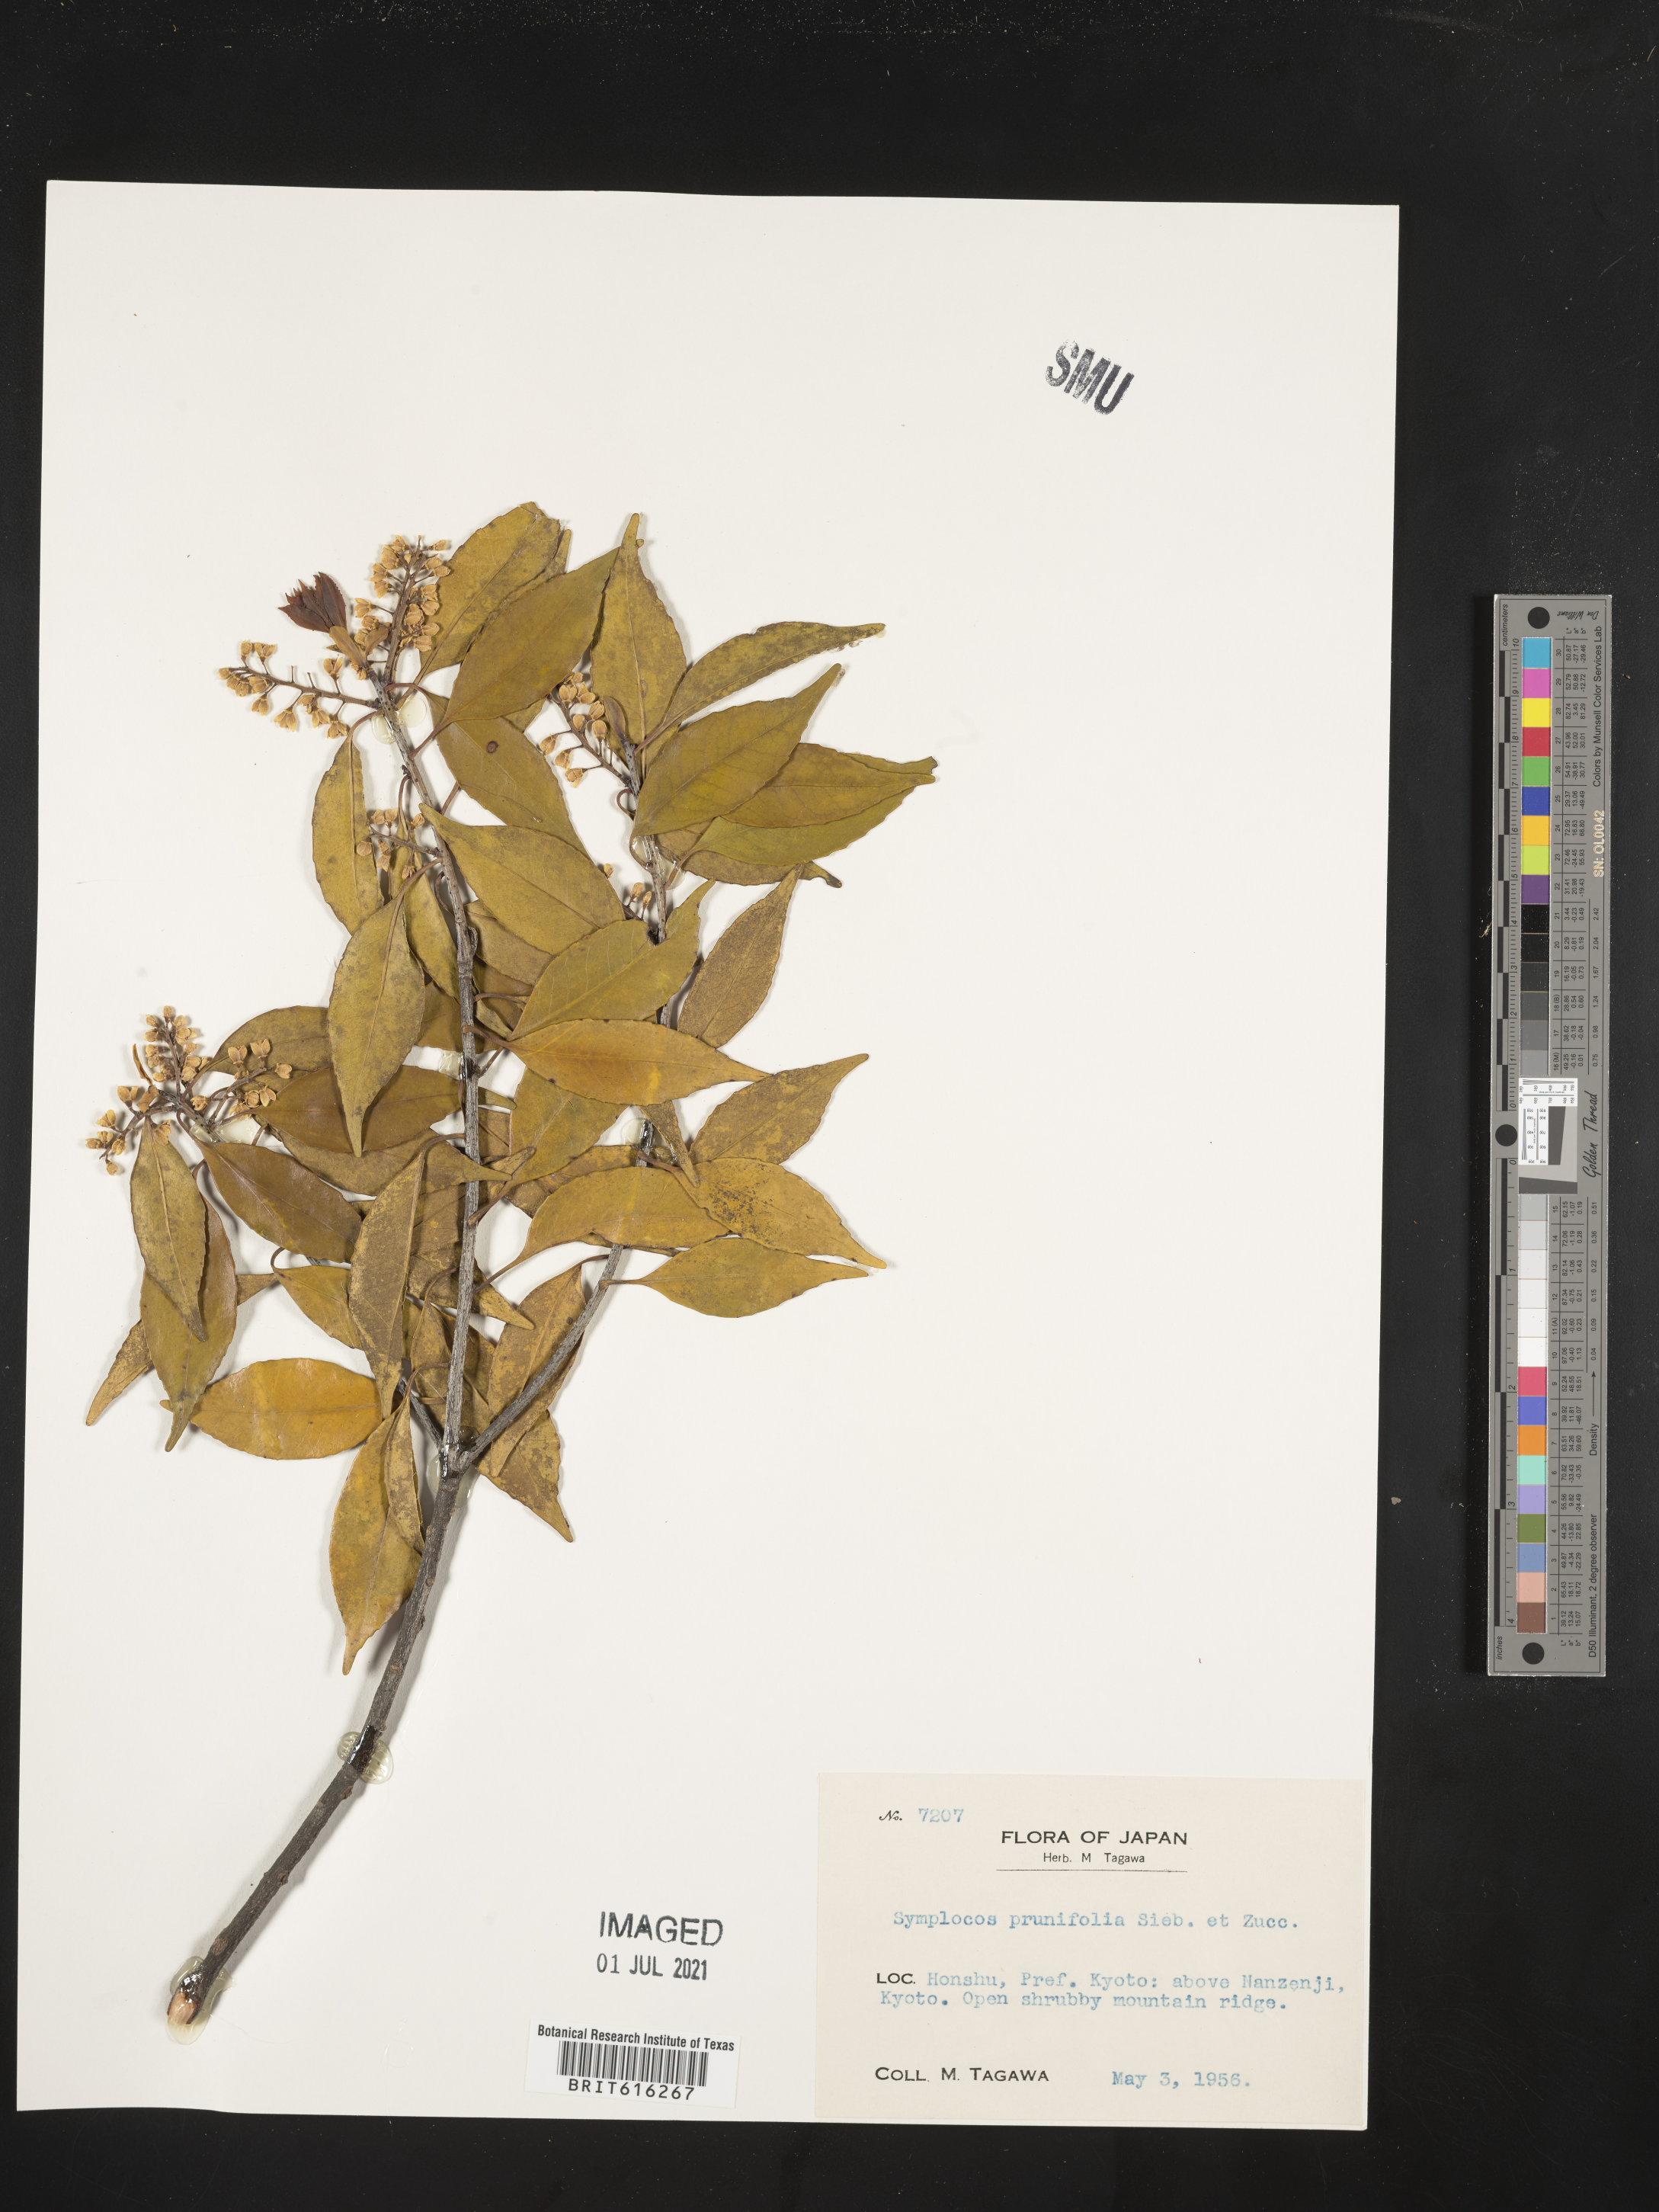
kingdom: Plantae
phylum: Tracheophyta
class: Magnoliopsida
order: Ericales
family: Symplocaceae
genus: Symplocos
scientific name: Symplocos sumuntia
